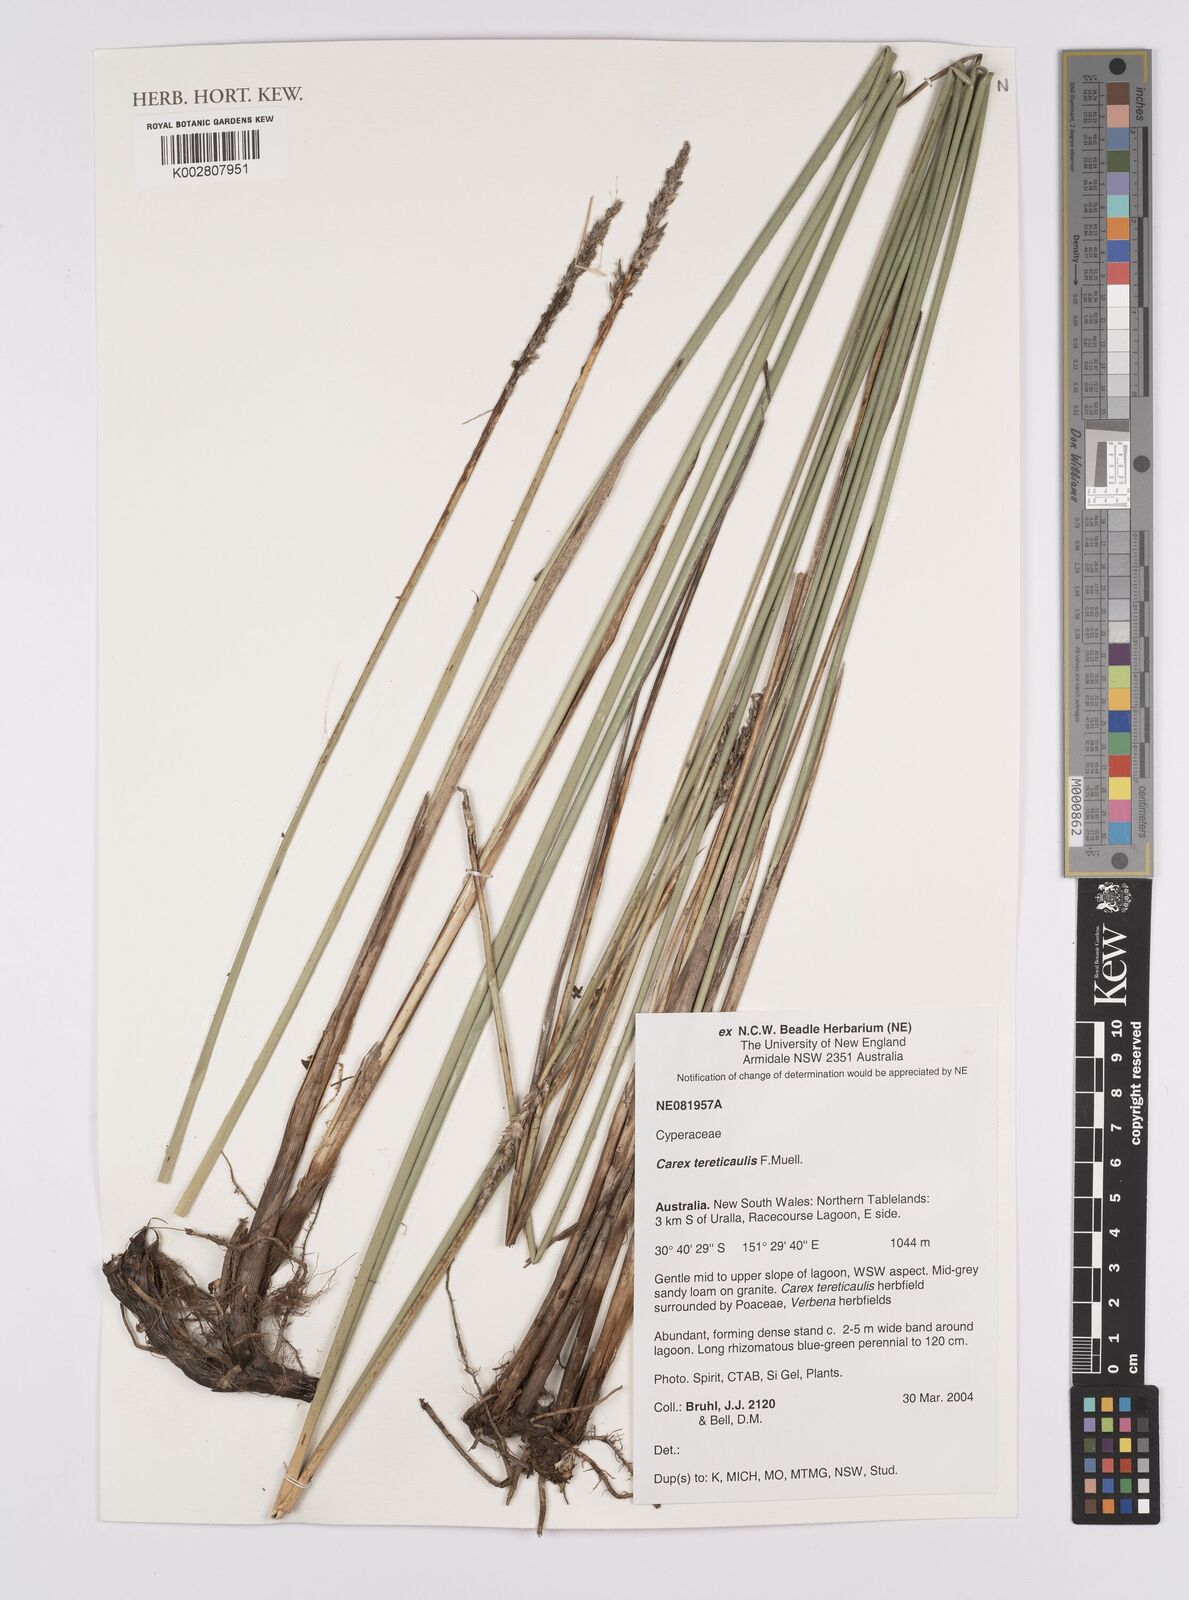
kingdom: Plantae
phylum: Tracheophyta
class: Liliopsida
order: Poales
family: Cyperaceae
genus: Carex
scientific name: Carex tereticaulis
